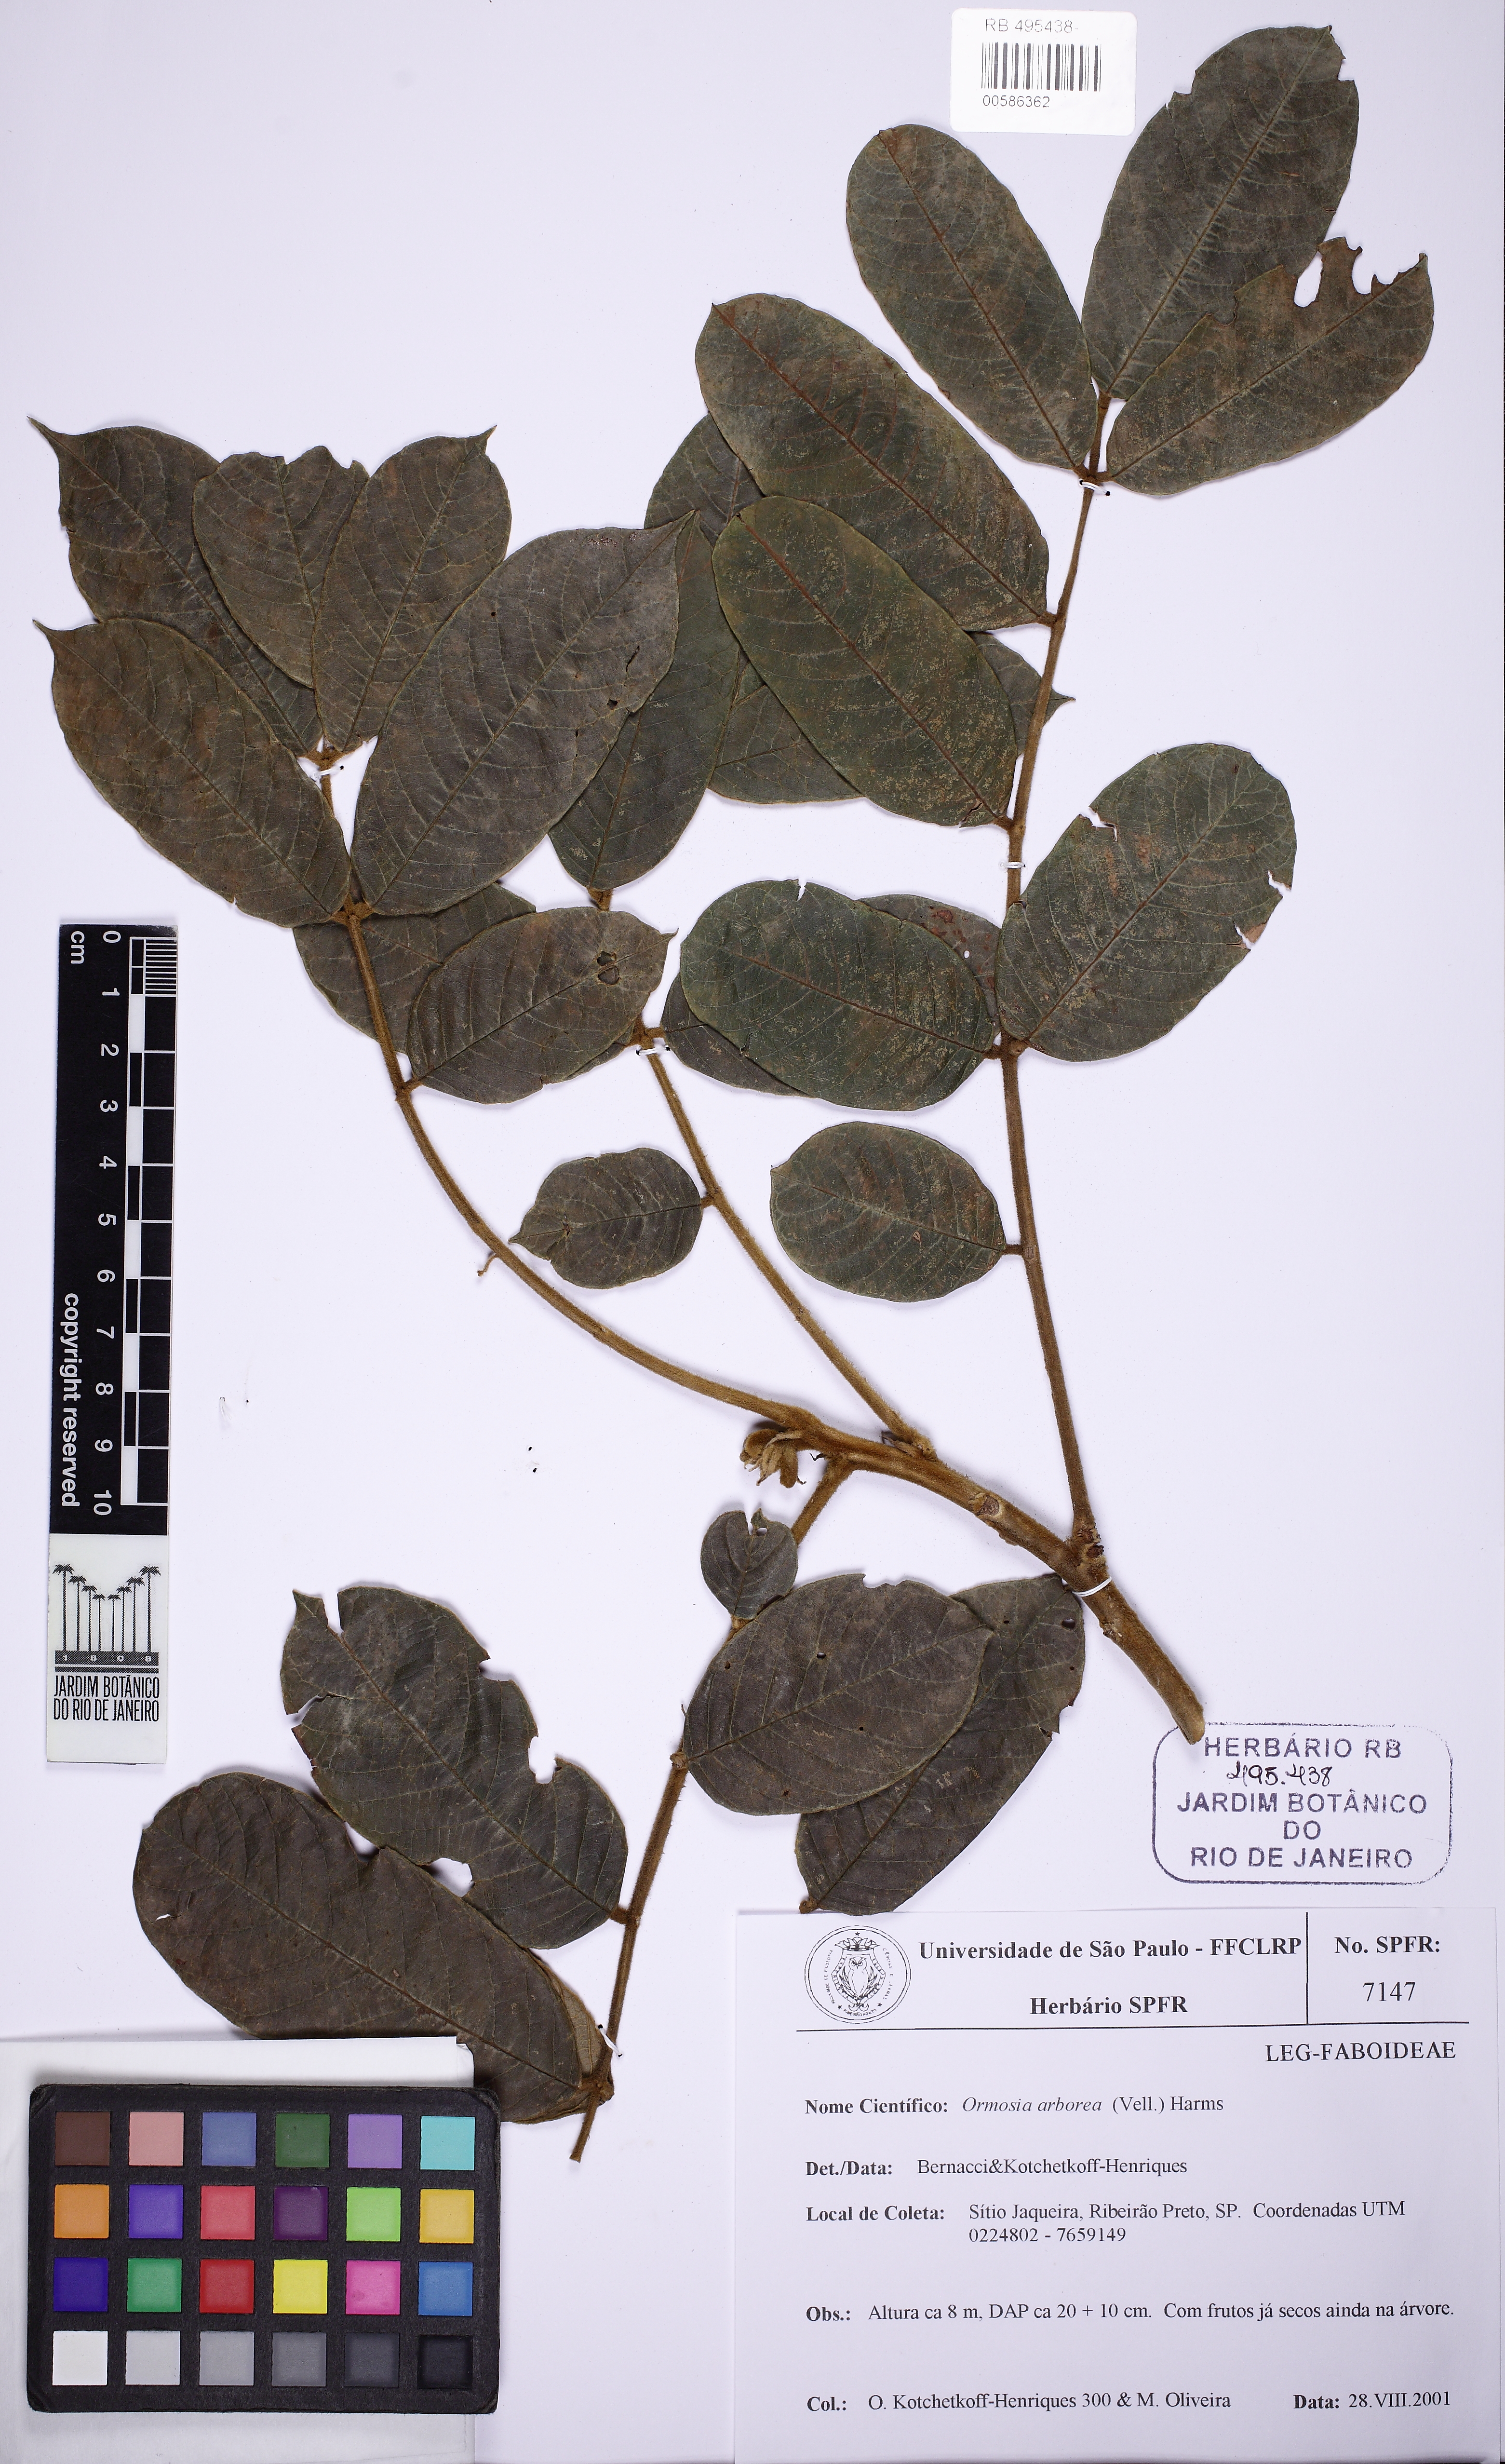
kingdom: Plantae
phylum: Tracheophyta
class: Magnoliopsida
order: Fabales
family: Fabaceae
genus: Ormosia
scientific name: Ormosia arborea
